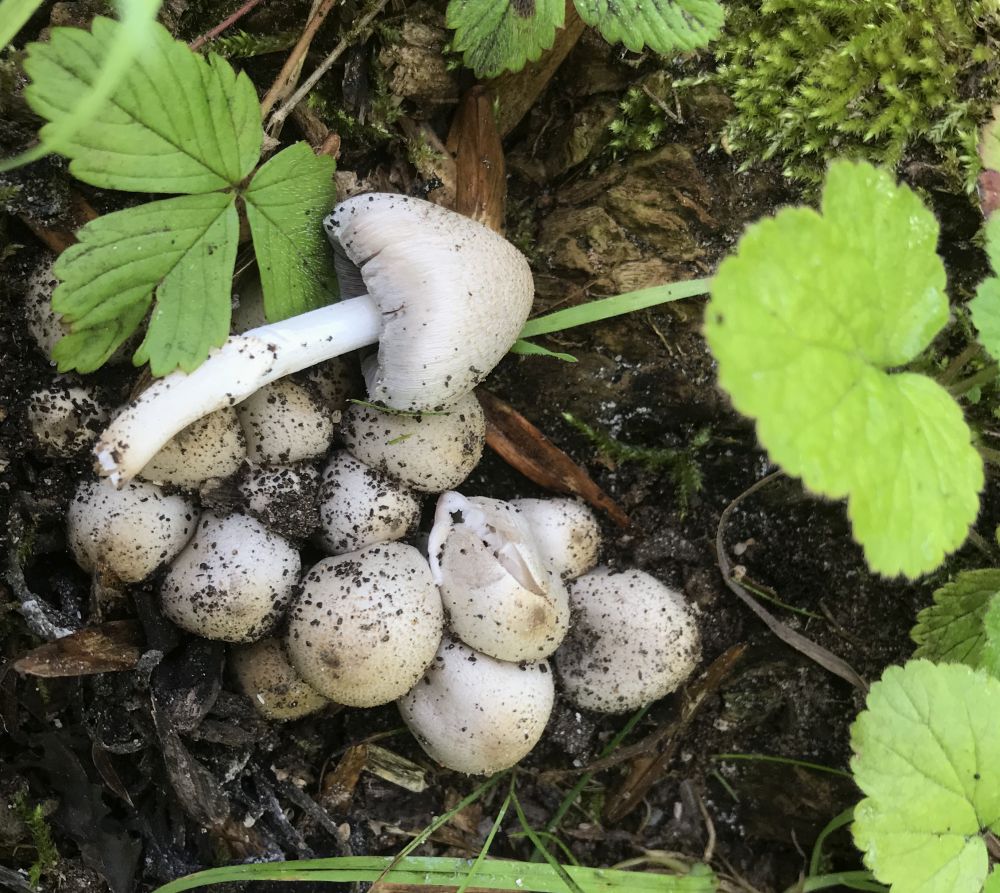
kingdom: Fungi
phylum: Basidiomycota
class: Agaricomycetes
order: Agaricales
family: Psathyrellaceae
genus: Coprinopsis
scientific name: Coprinopsis atramentaria
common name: almindelig blækhat
